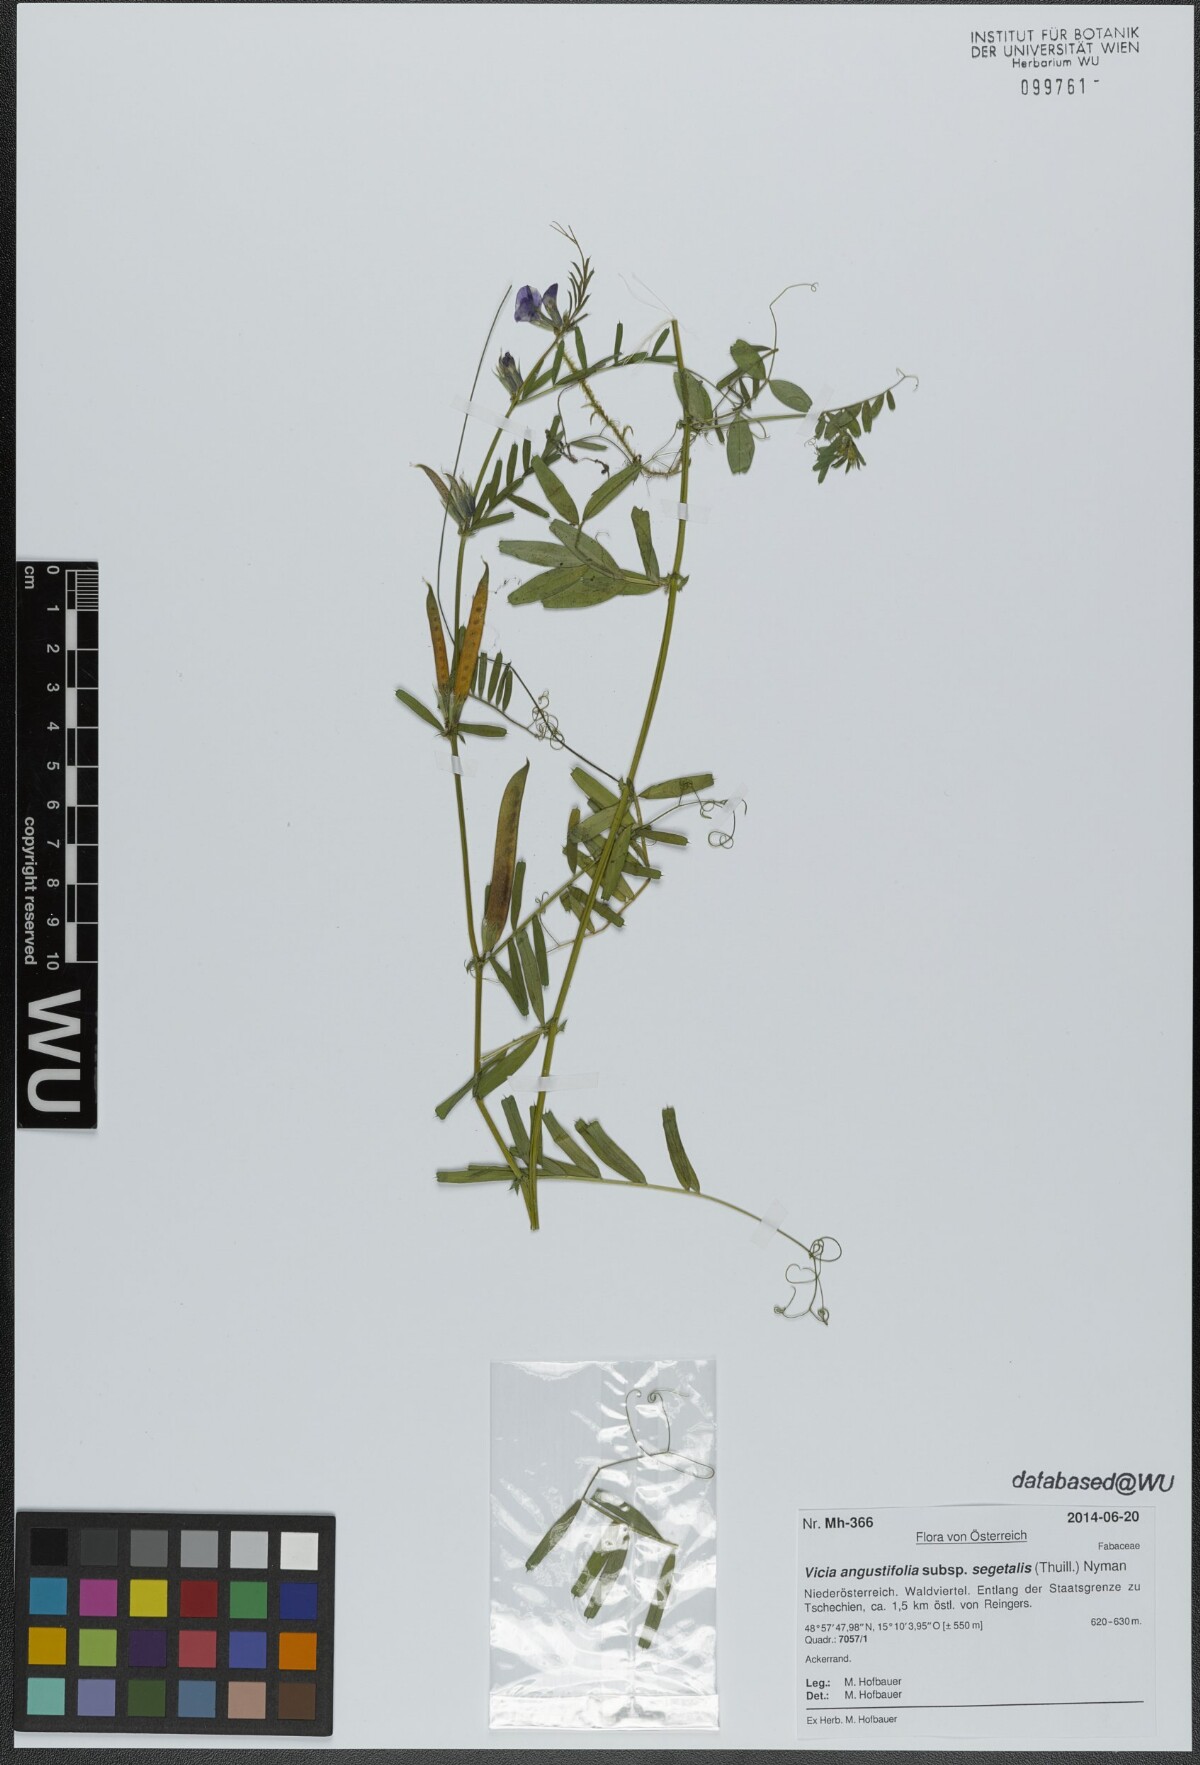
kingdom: Plantae
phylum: Tracheophyta
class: Magnoliopsida
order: Fabales
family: Fabaceae
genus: Vicia
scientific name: Vicia sativa
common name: Garden vetch
